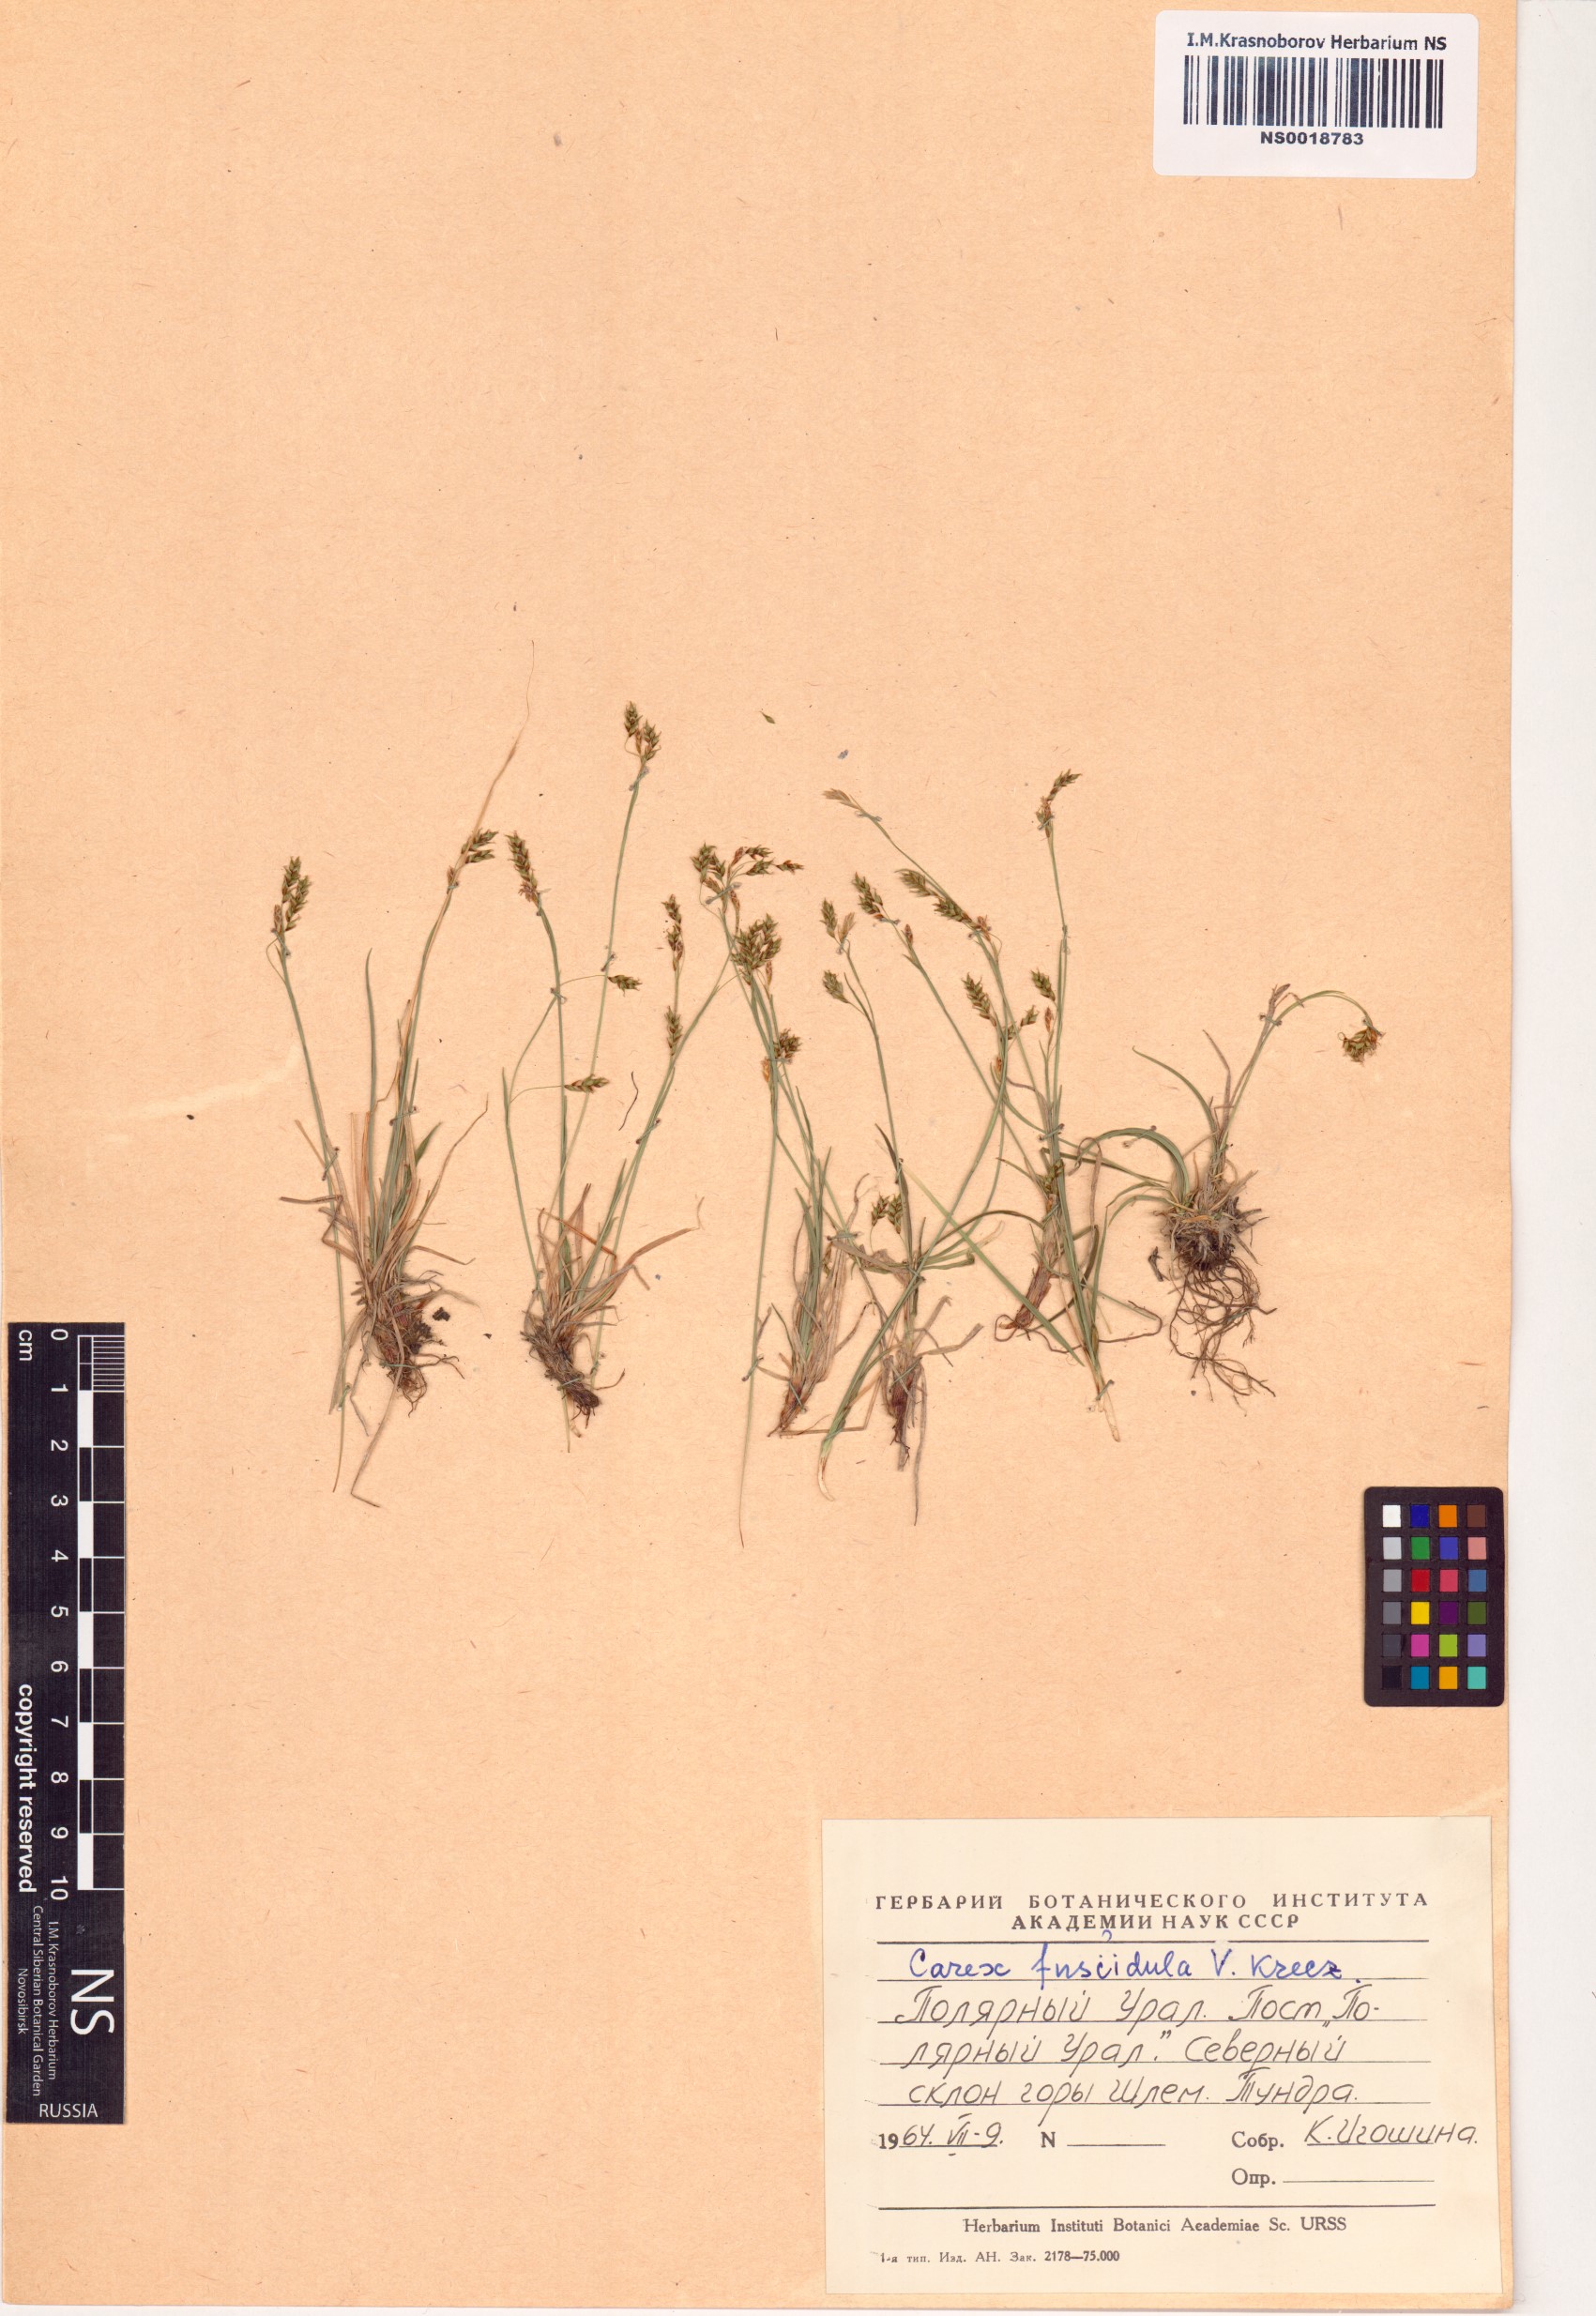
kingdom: Plantae
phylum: Tracheophyta
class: Liliopsida
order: Poales
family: Cyperaceae
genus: Carex
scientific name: Carex capillaris
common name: Hair sedge
